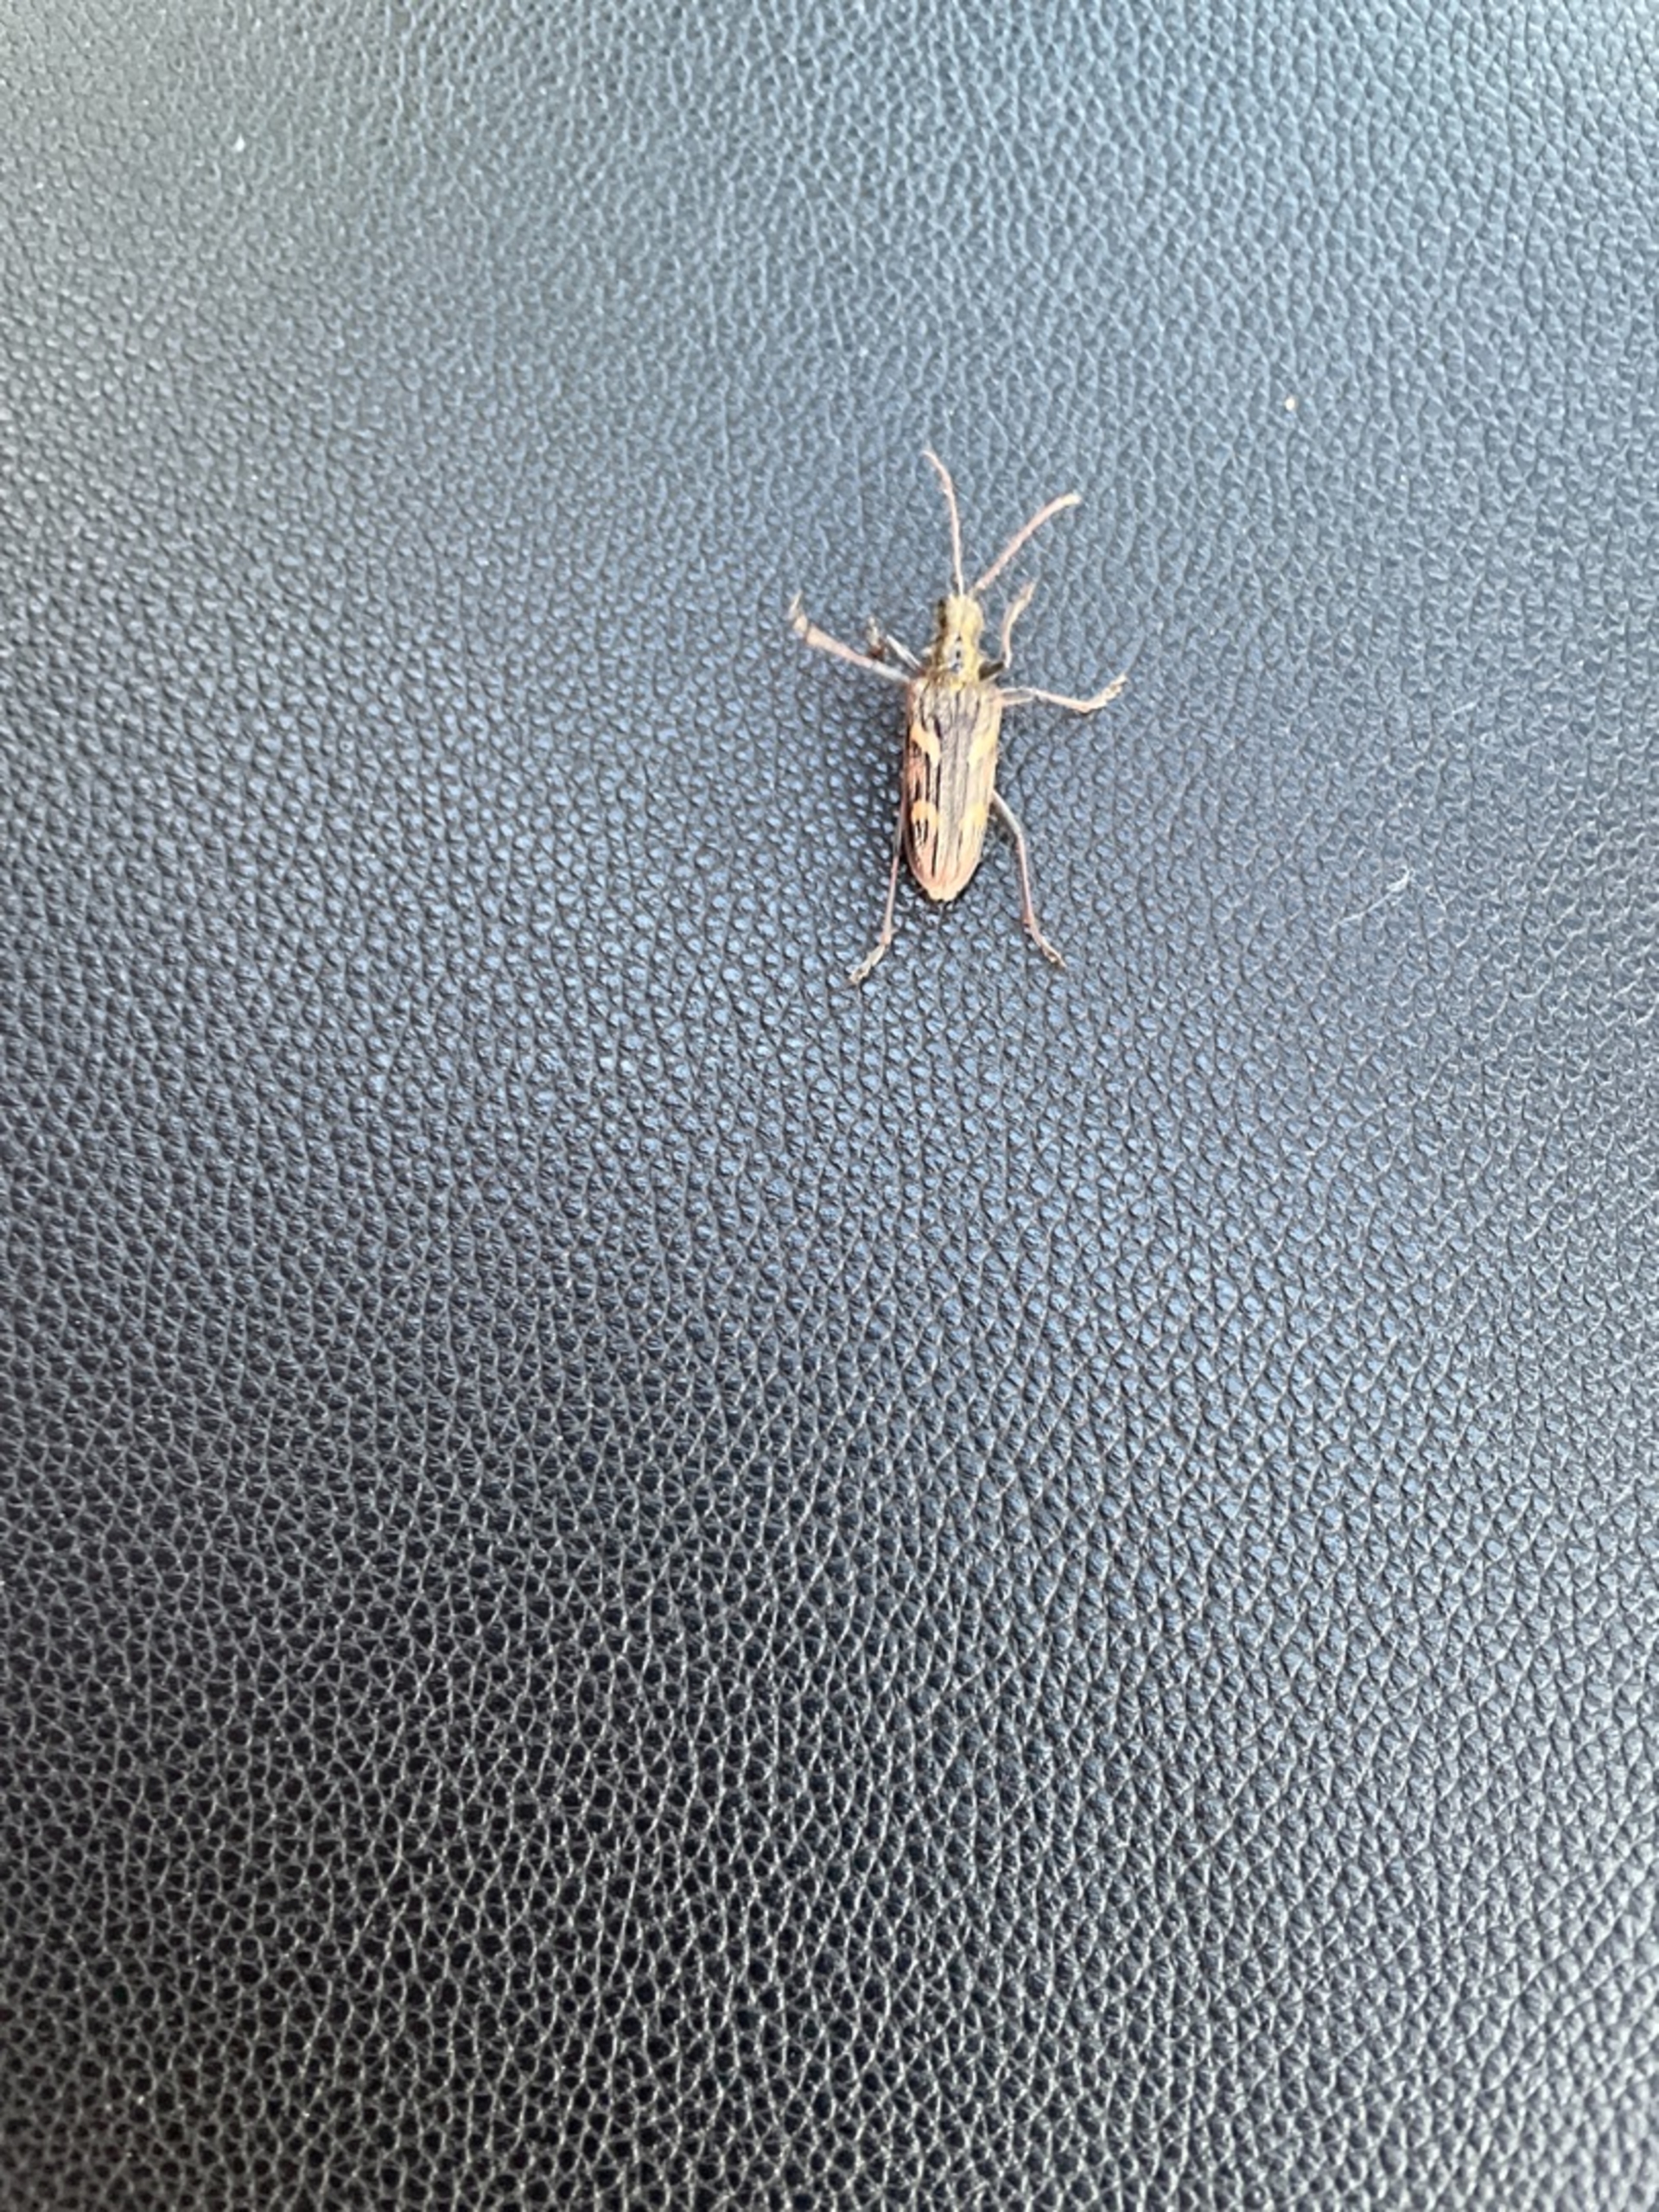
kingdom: Animalia
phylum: Arthropoda
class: Insecta
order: Coleoptera
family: Cerambycidae
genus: Rhagium
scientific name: Rhagium bifasciatum
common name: Båndet tandbuk
